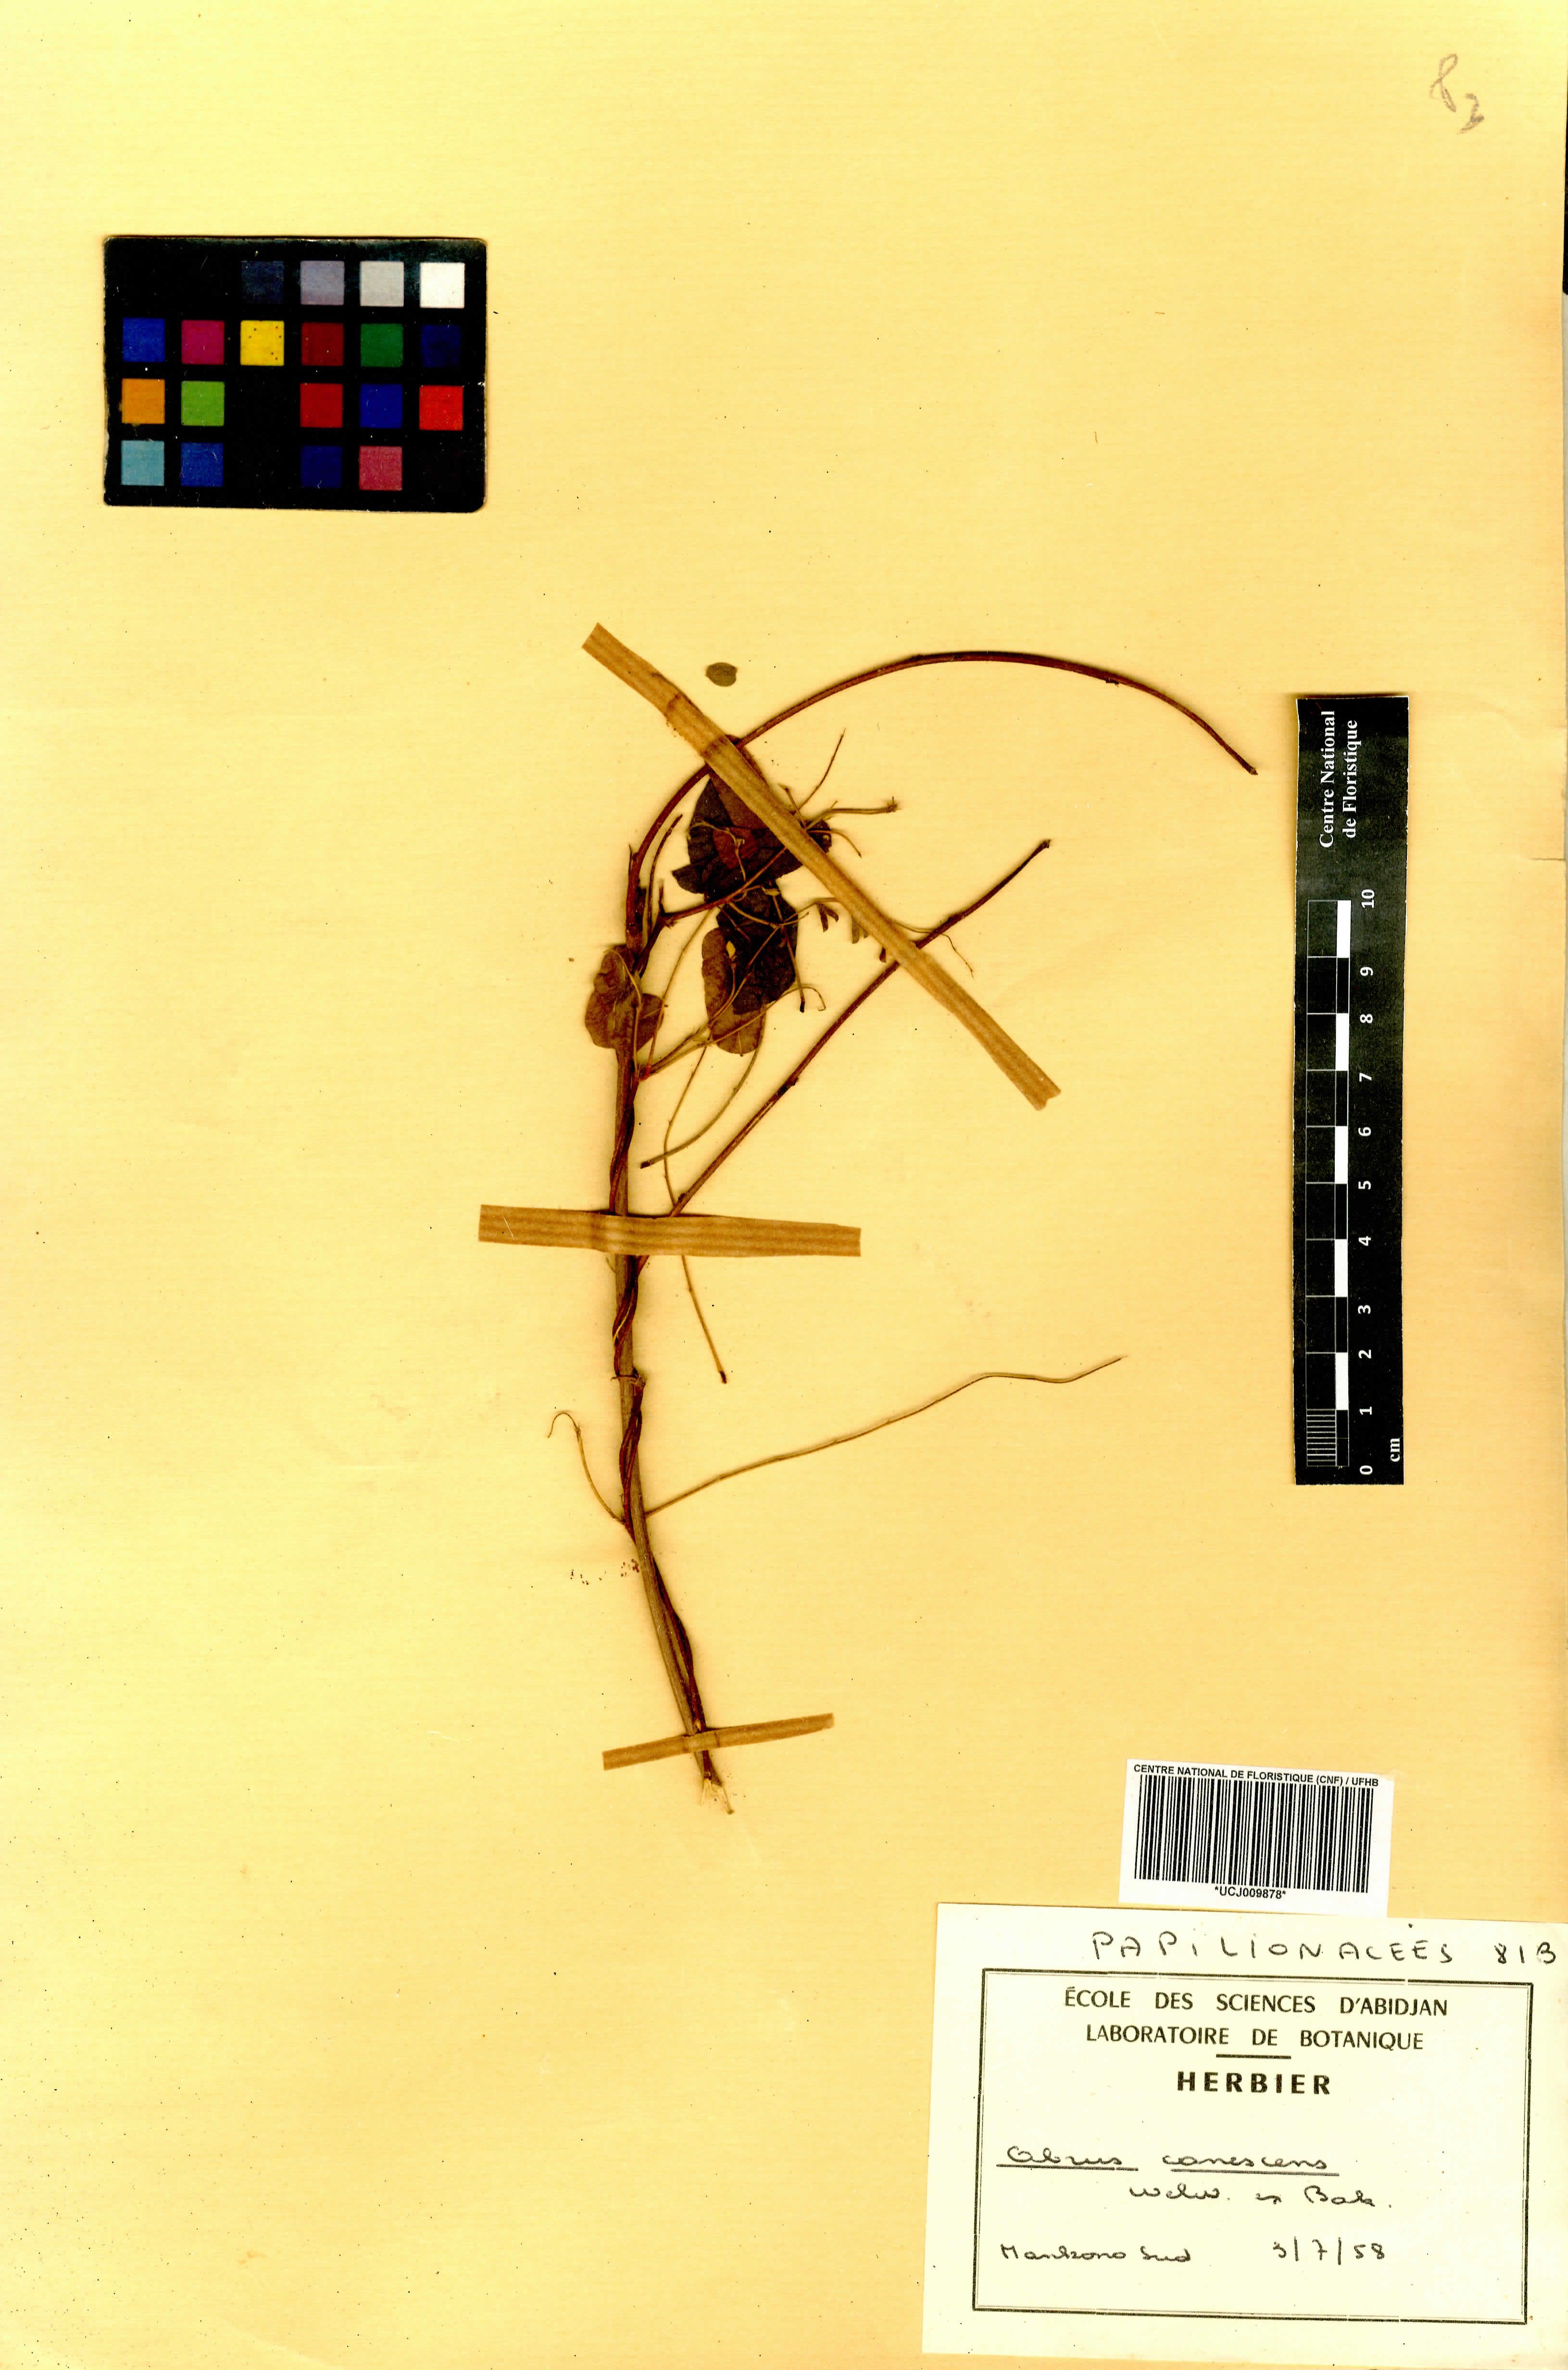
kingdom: Plantae
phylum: Tracheophyta
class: Magnoliopsida
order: Fabales
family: Fabaceae
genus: Abrus
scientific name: Abrus canescens
